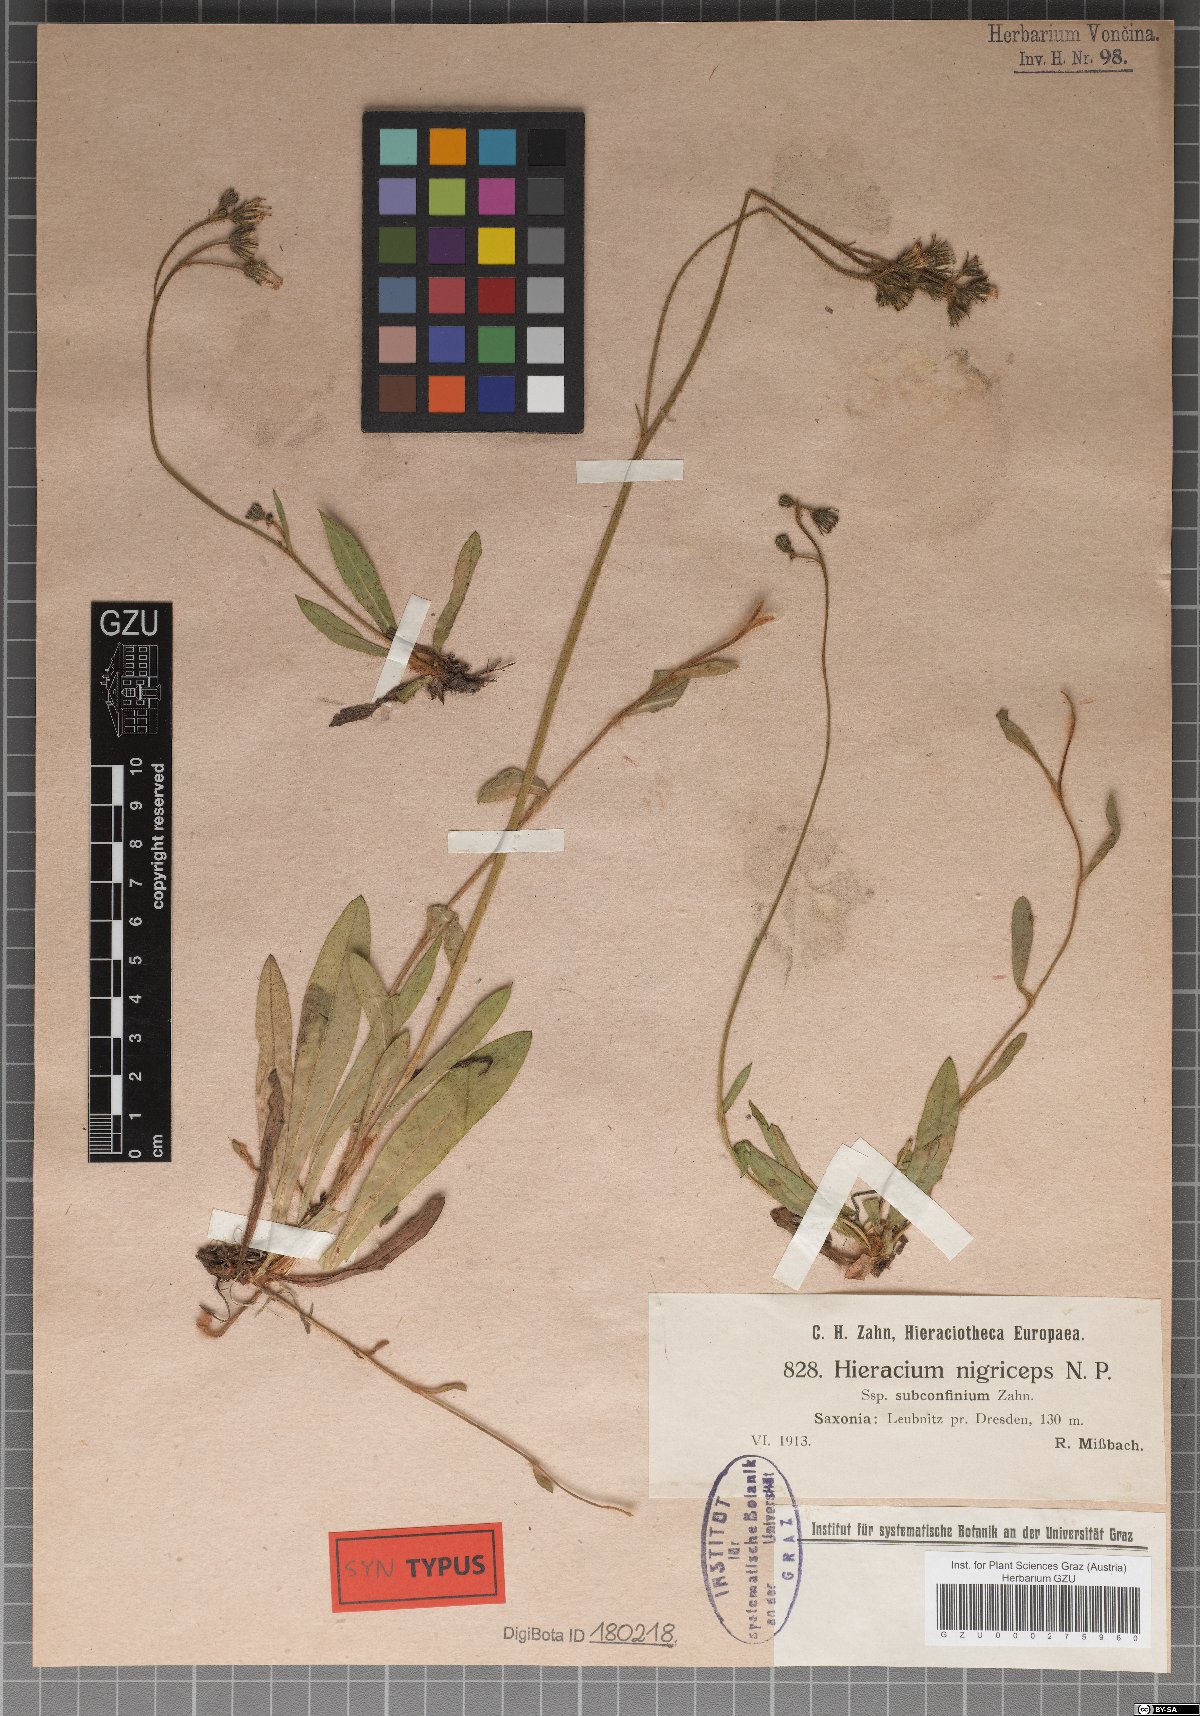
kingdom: Plantae
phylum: Tracheophyta
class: Magnoliopsida
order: Asterales
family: Asteraceae
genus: Hieracium
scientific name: Hieracium nigriceps
